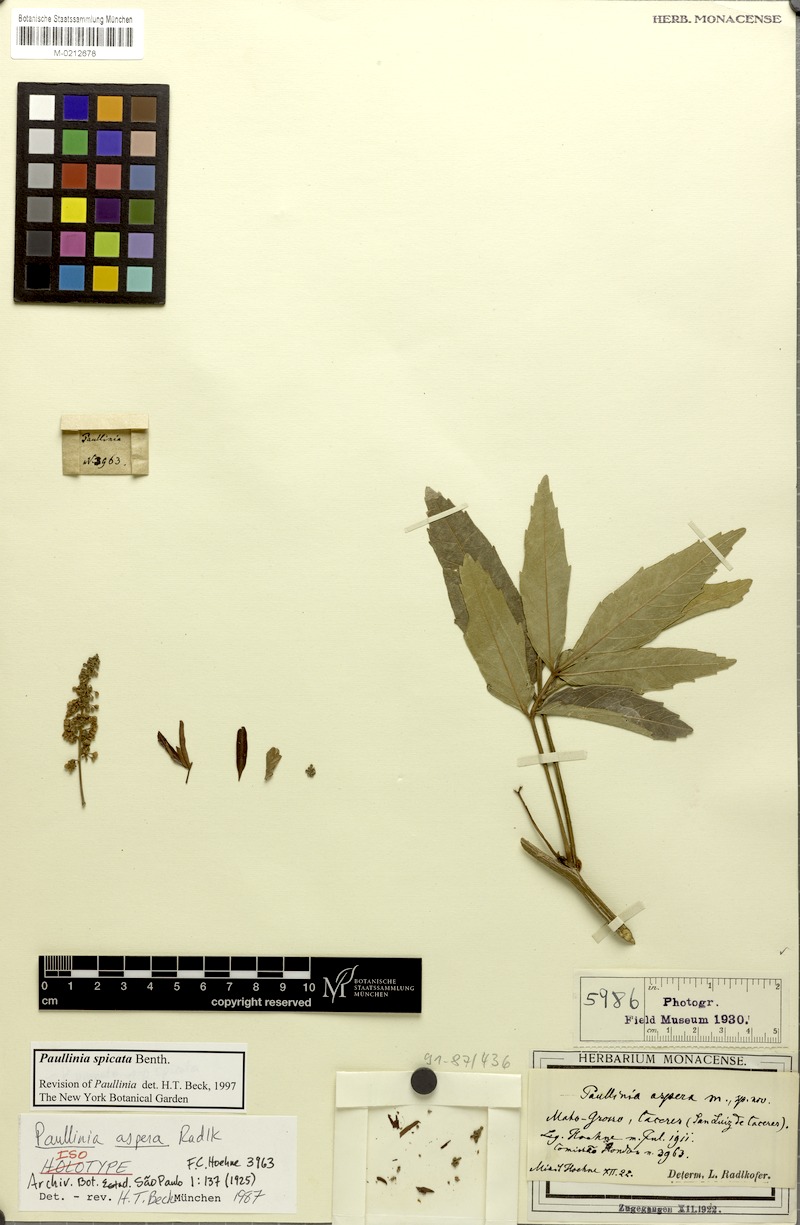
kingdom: Plantae
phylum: Tracheophyta
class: Magnoliopsida
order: Sapindales
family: Sapindaceae
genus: Paullinia
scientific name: Paullinia spicata
